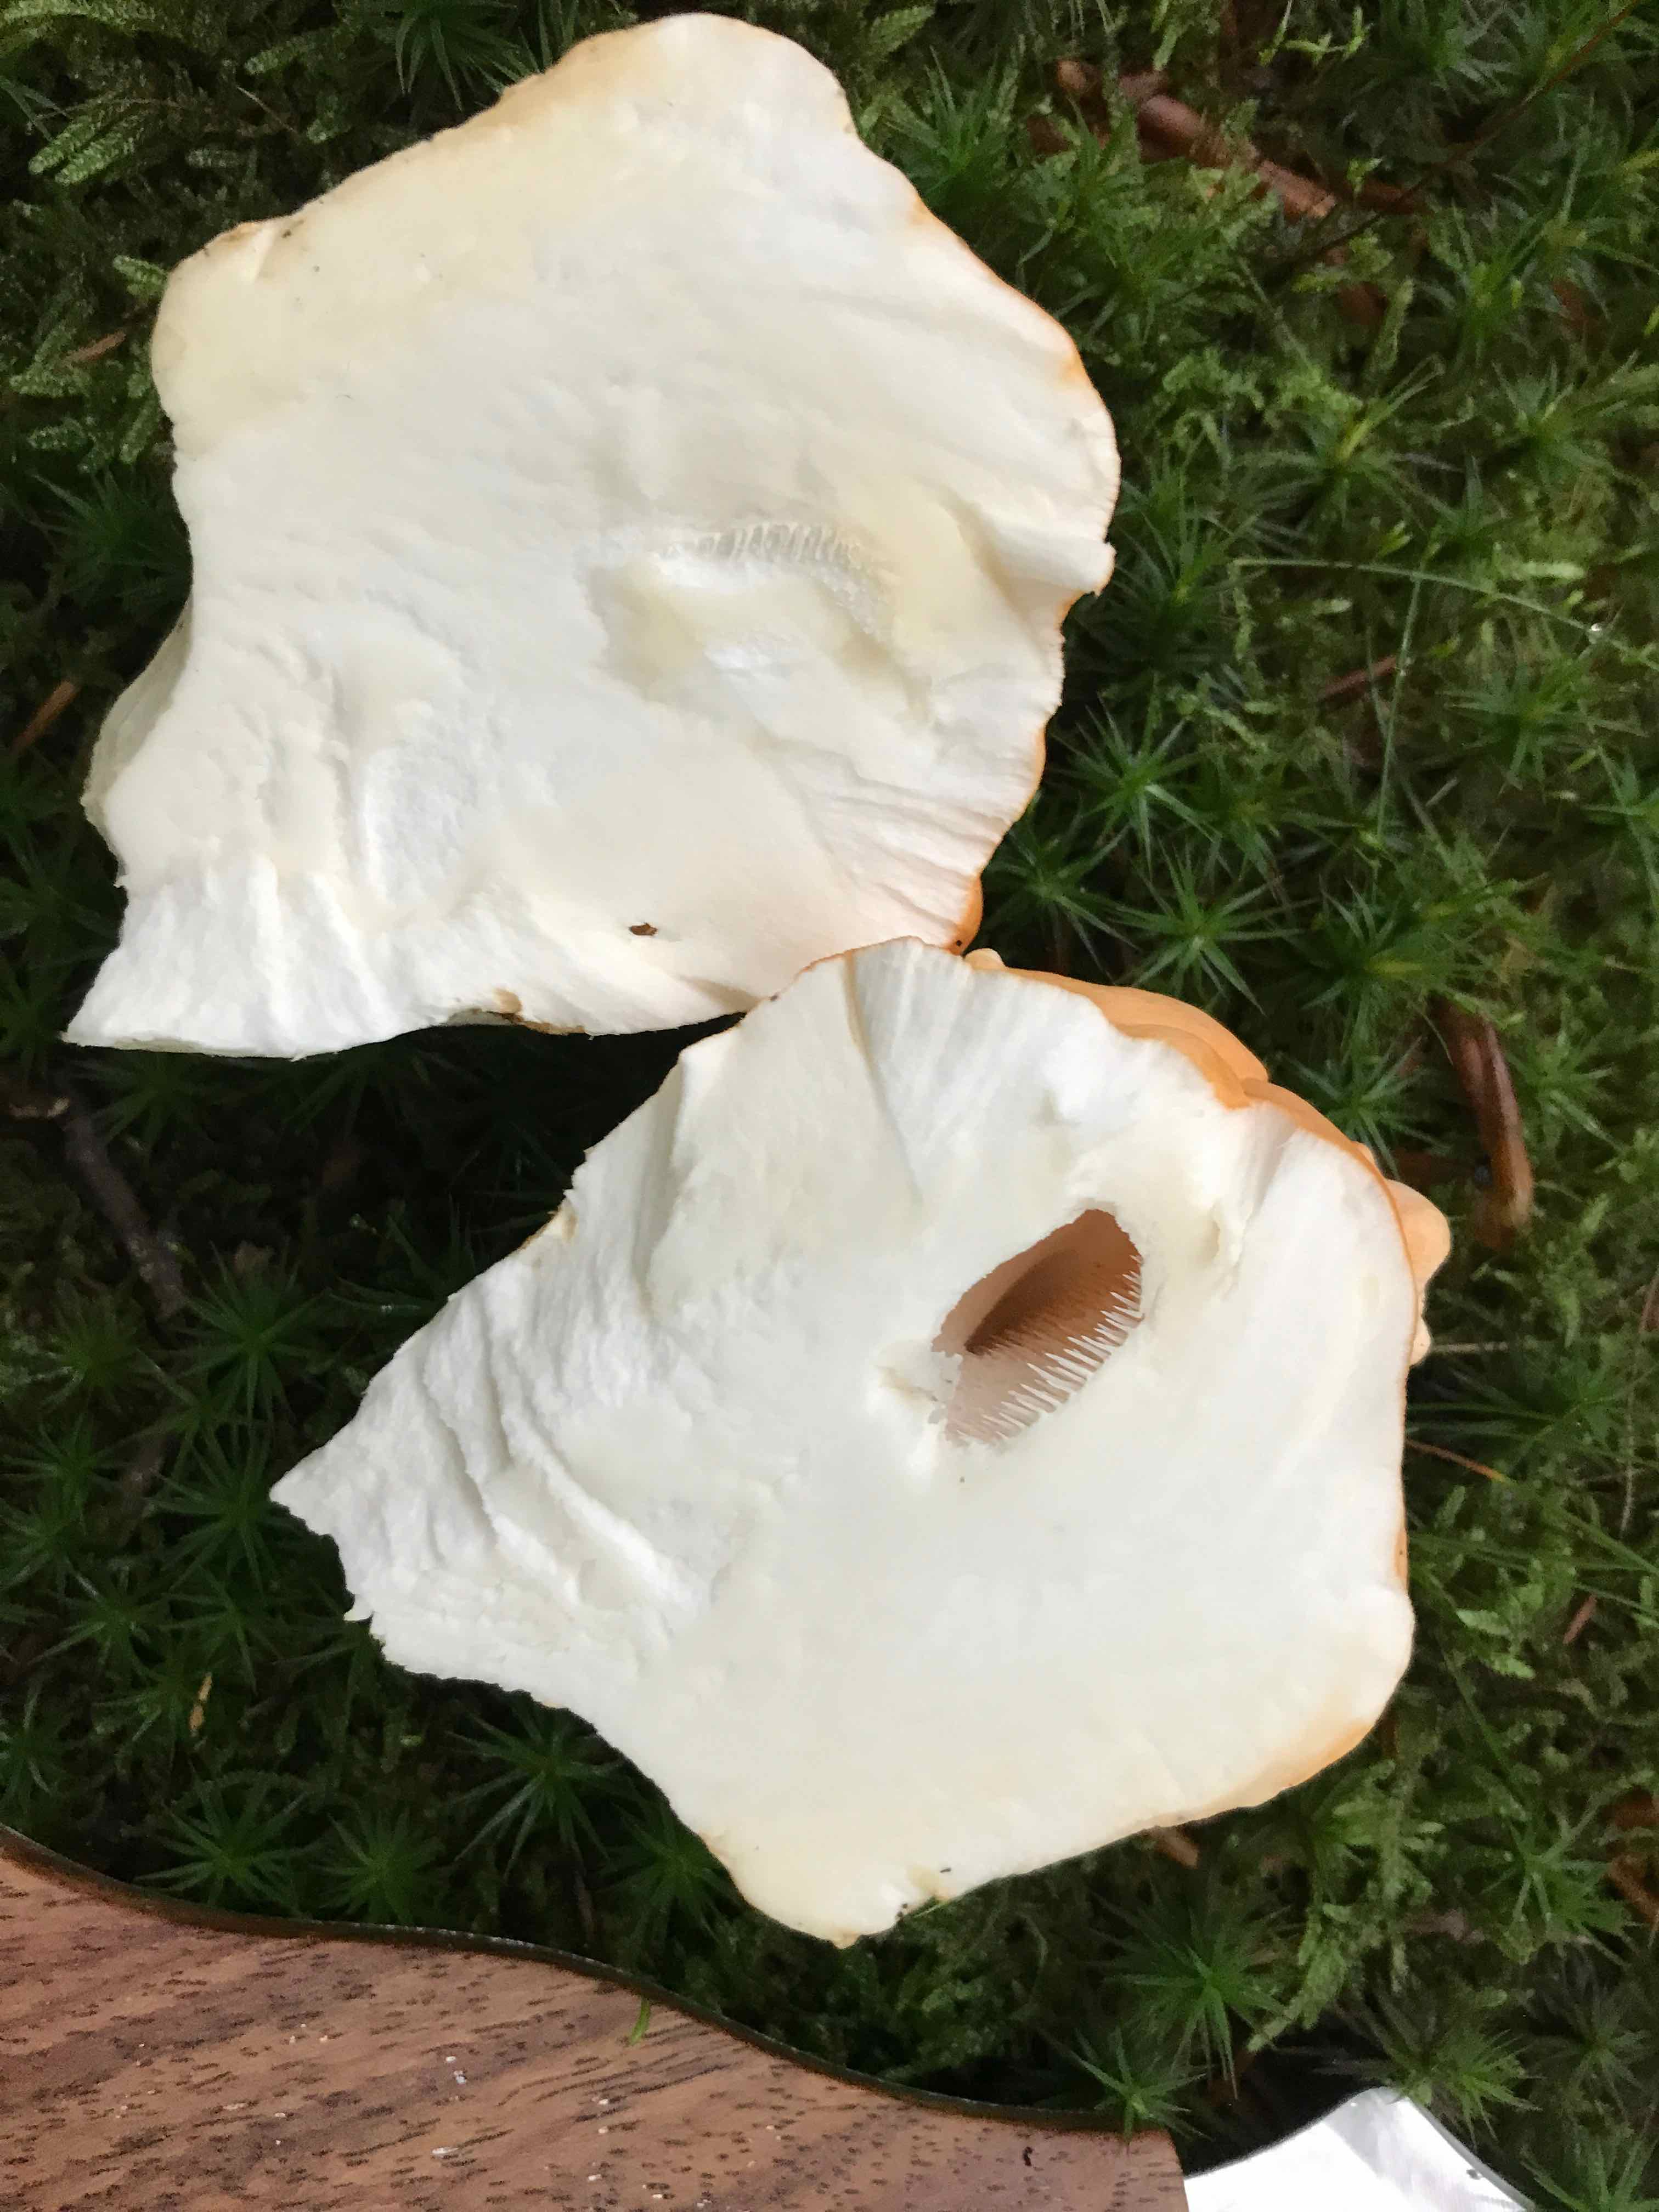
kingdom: Fungi
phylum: Basidiomycota
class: Agaricomycetes
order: Cantharellales
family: Hydnaceae
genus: Hydnum
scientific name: Hydnum
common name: pigsvamp
